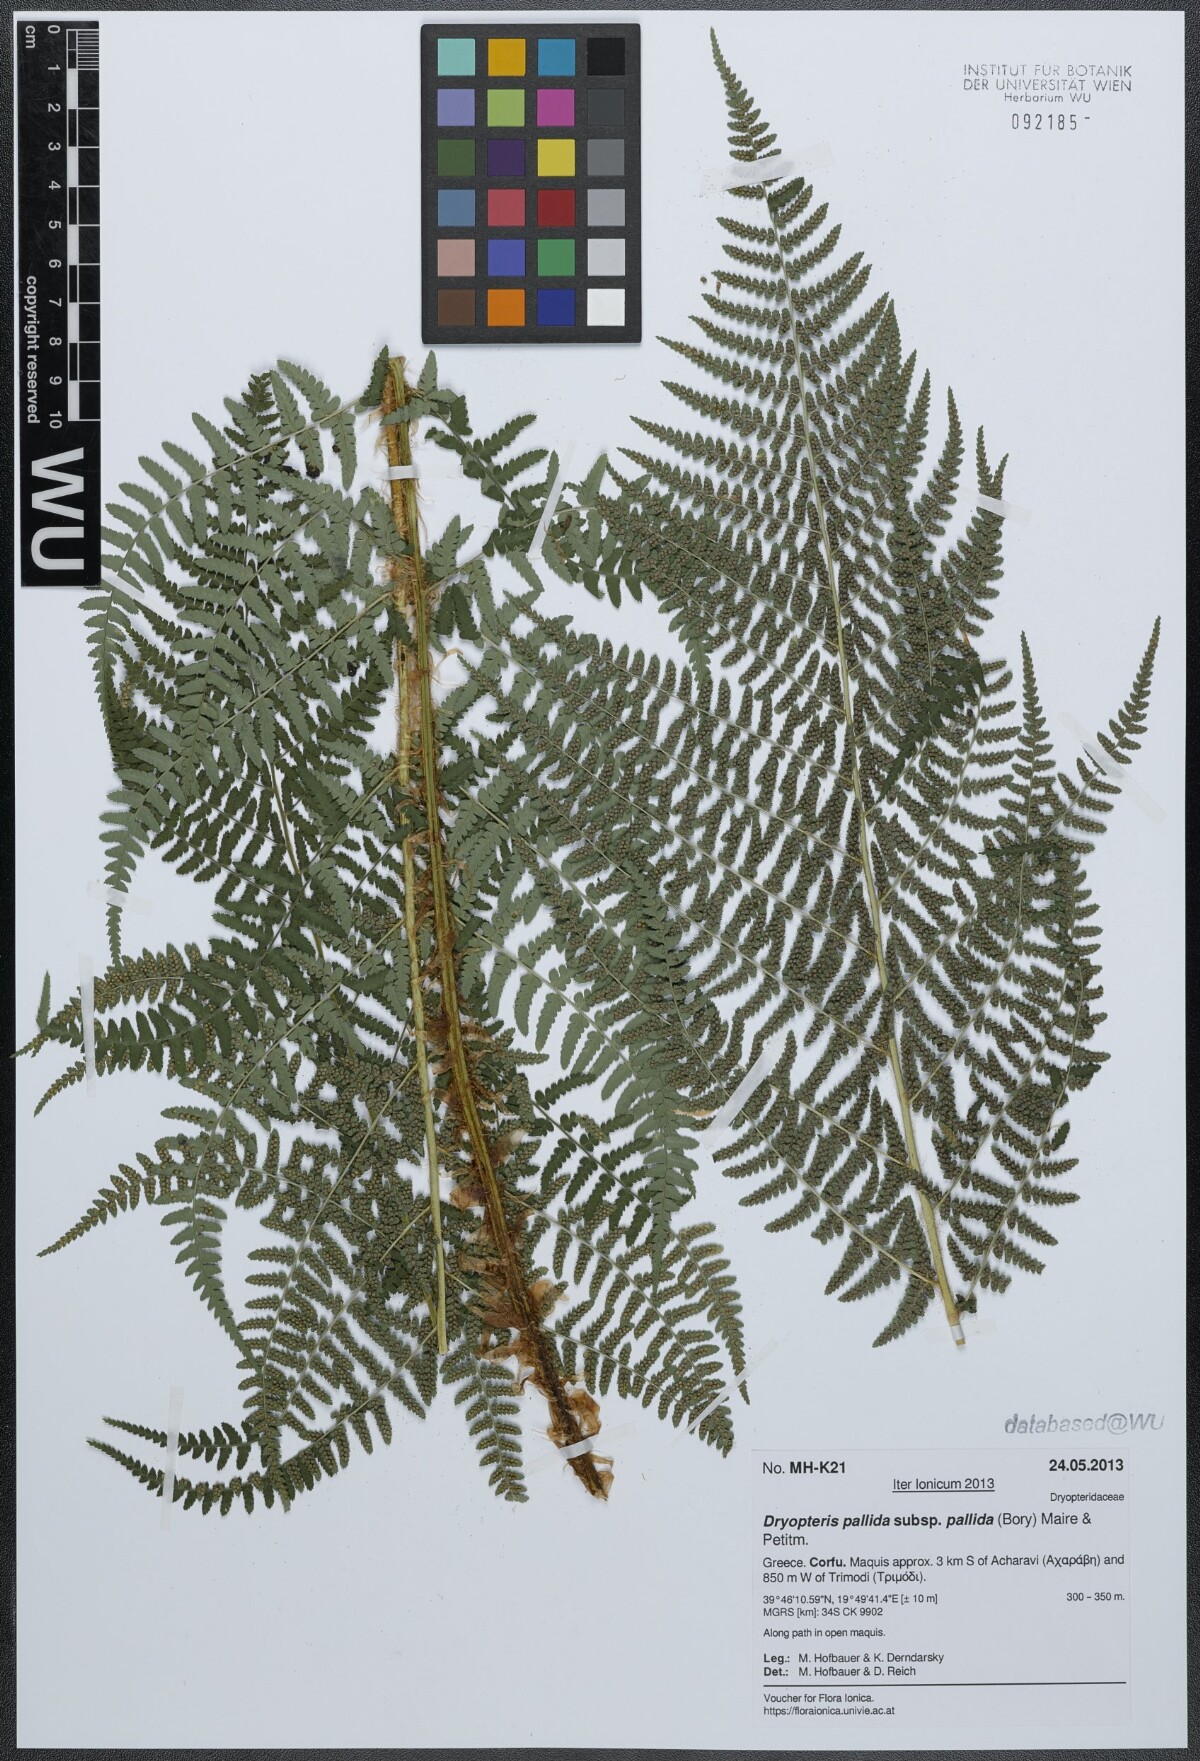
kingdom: Plantae
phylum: Tracheophyta
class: Polypodiopsida
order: Polypodiales
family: Dryopteridaceae
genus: Dryopteris
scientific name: Dryopteris pallida
